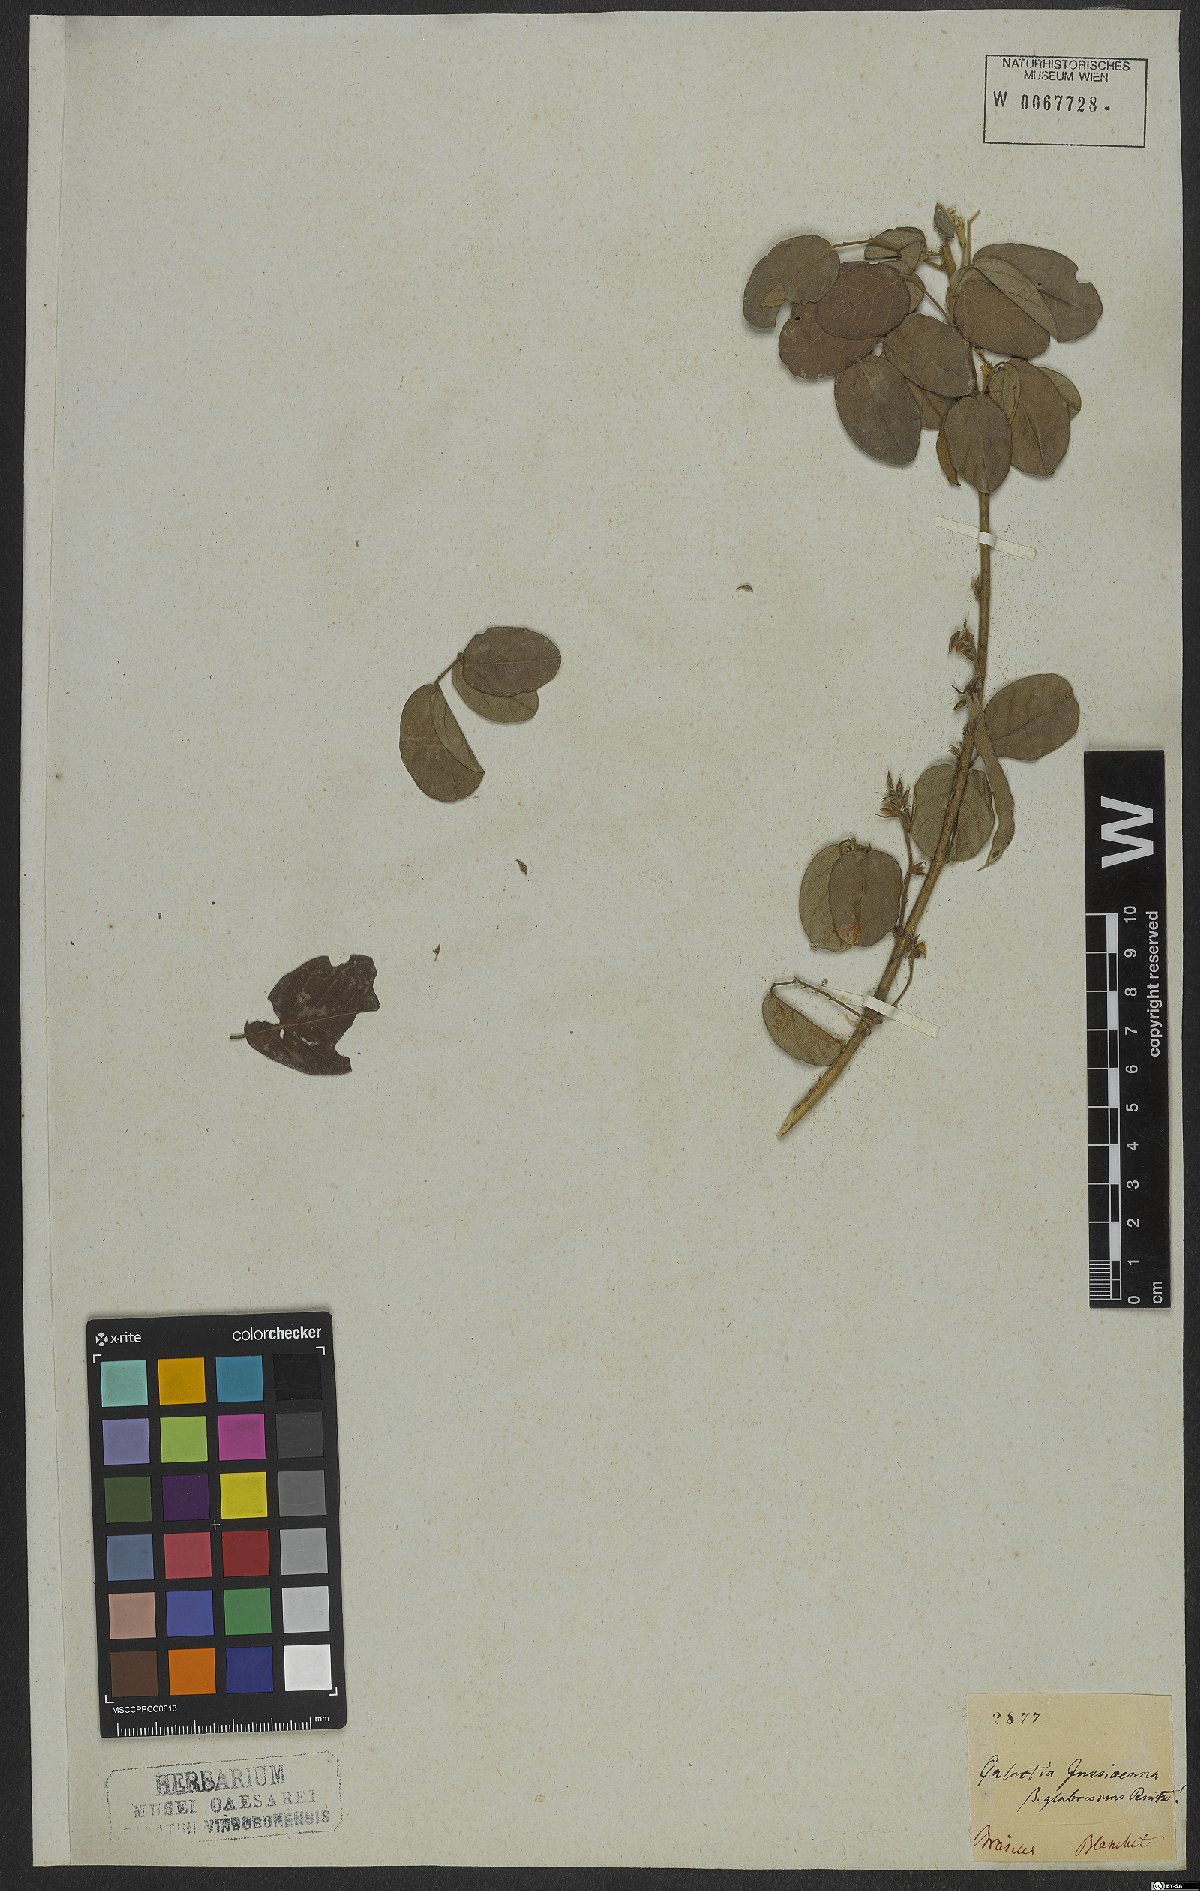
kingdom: Plantae
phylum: Tracheophyta
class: Magnoliopsida
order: Fabales
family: Fabaceae
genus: Galactia
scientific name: Galactia jussiaeana
